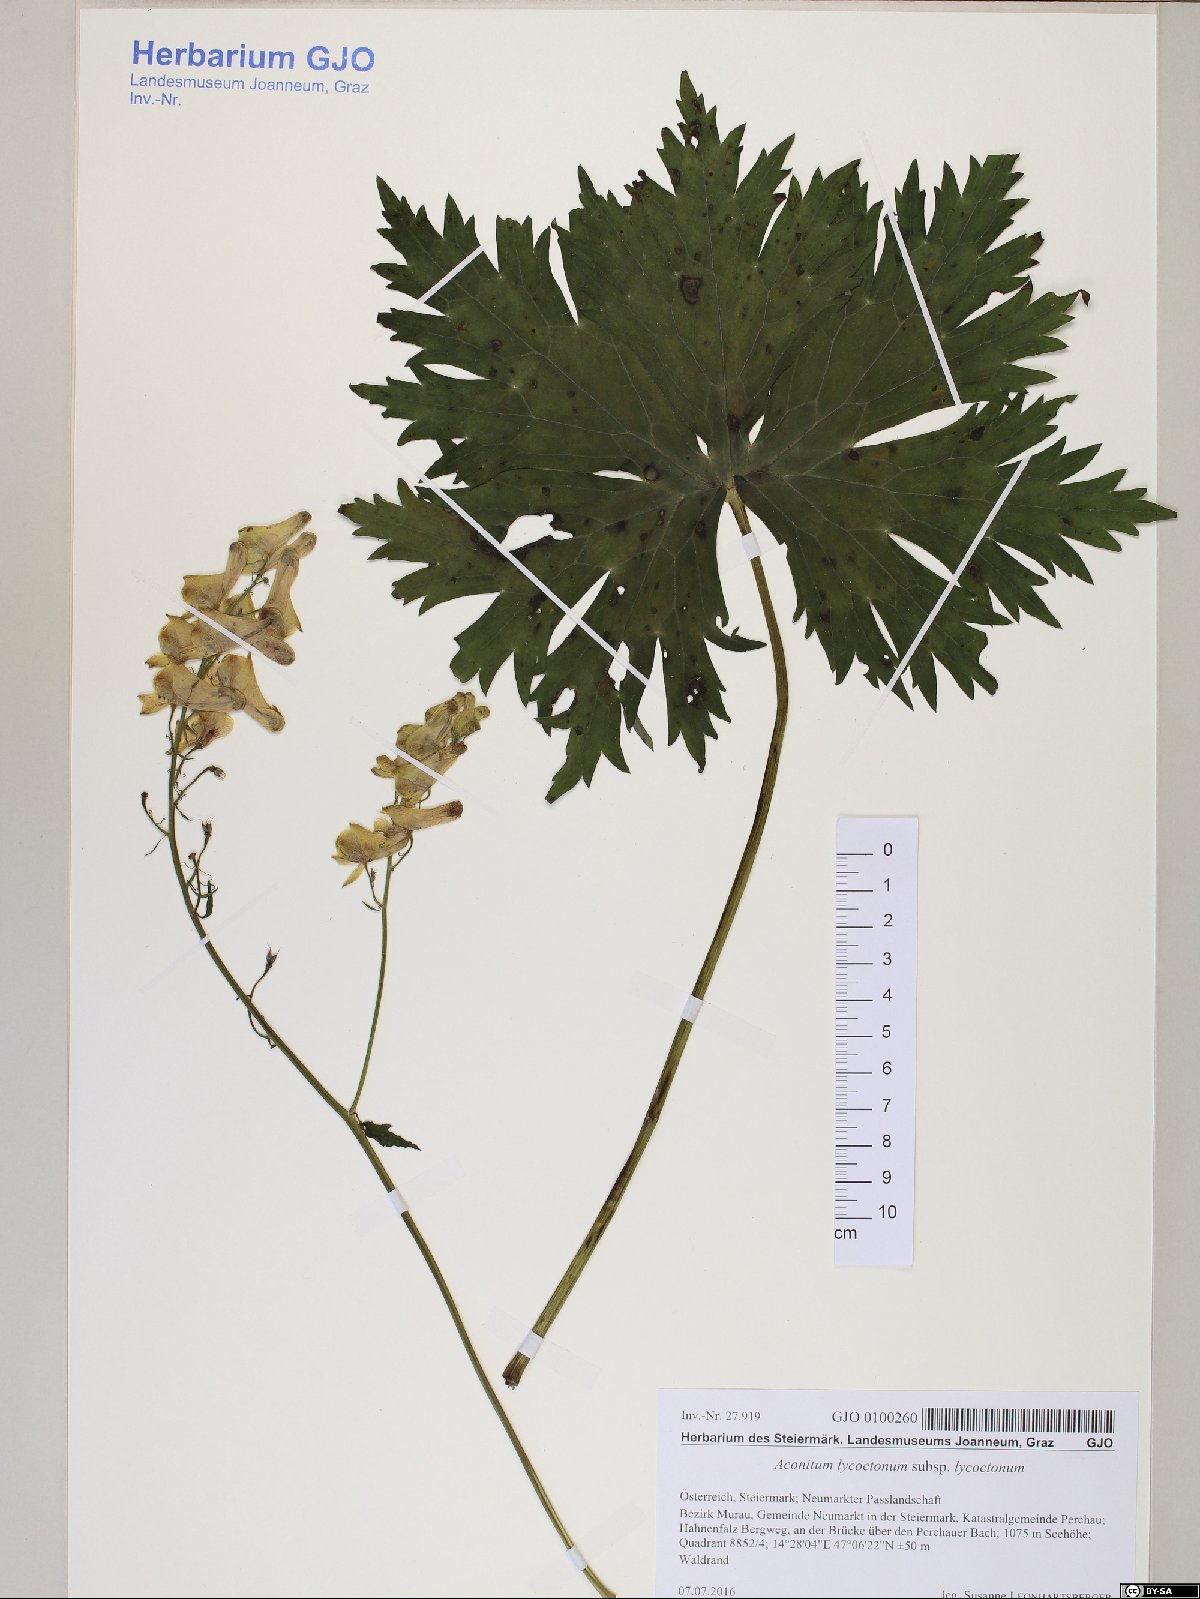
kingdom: Plantae
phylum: Tracheophyta
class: Magnoliopsida
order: Ranunculales
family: Ranunculaceae
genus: Aconitum
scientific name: Aconitum lycoctonum
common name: Wolf's-bane
